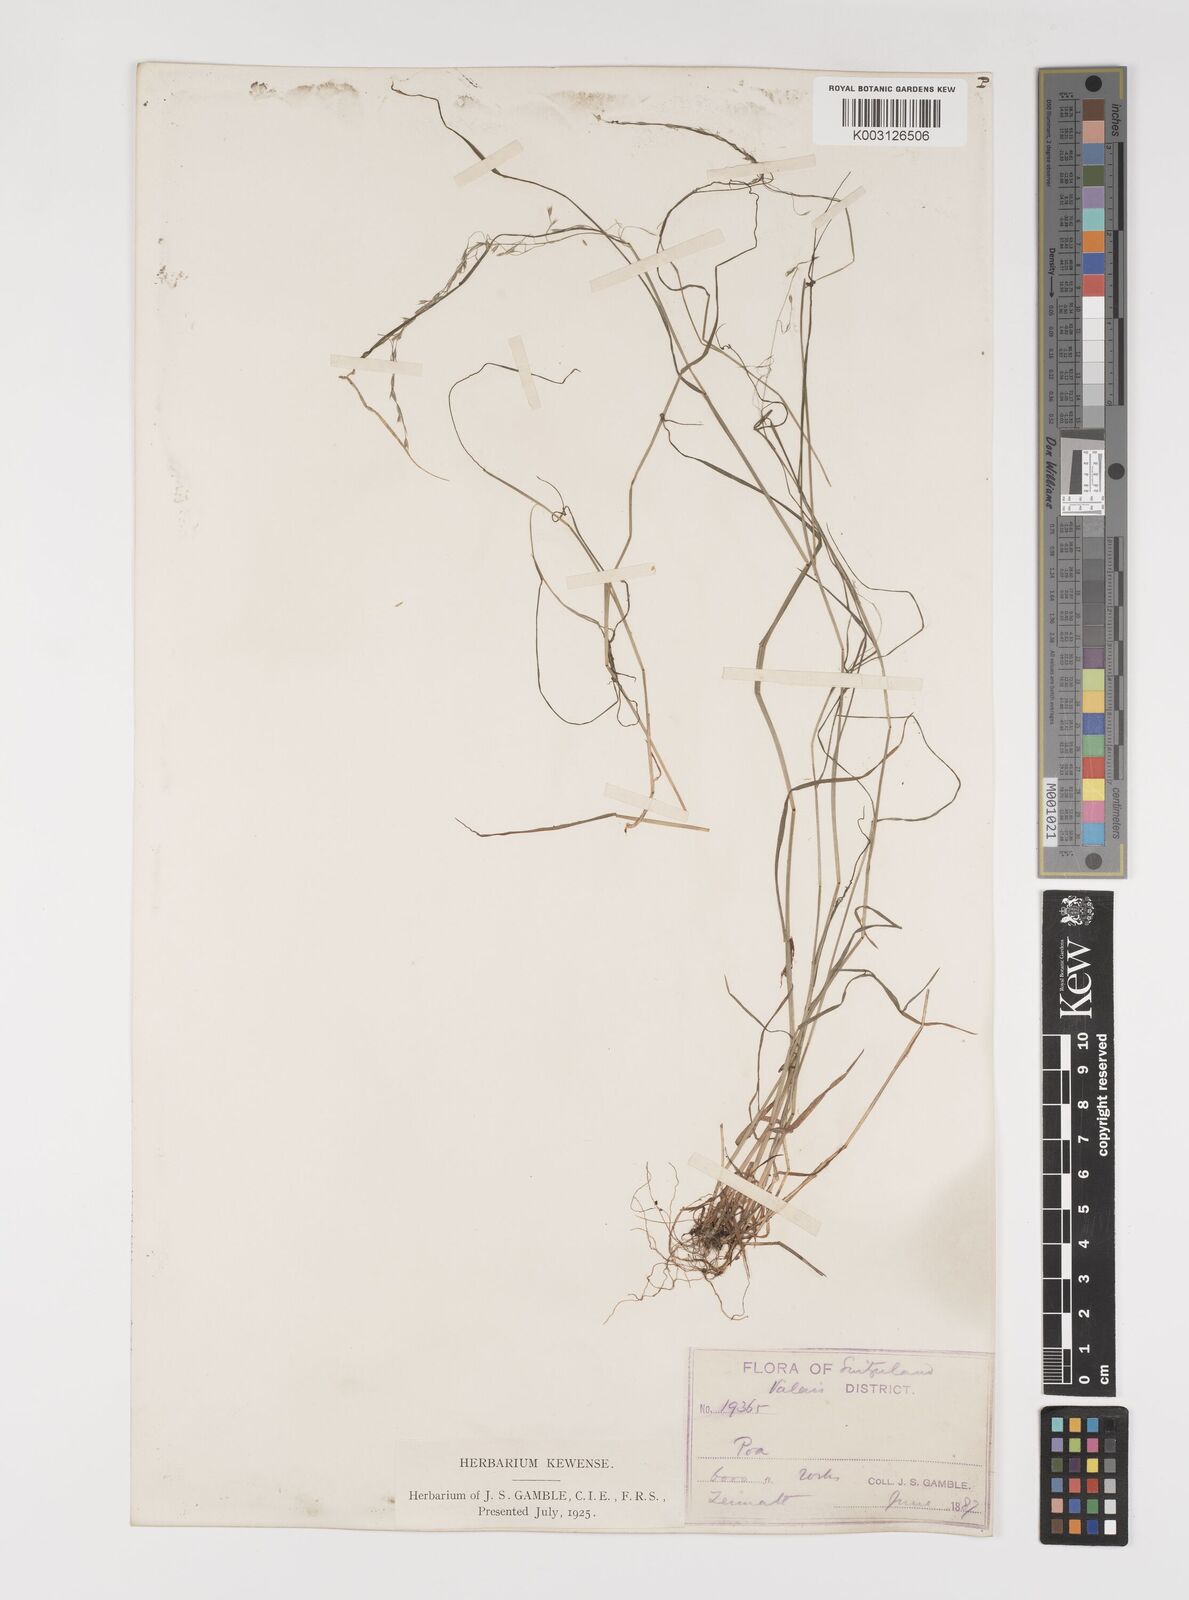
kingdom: Plantae
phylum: Tracheophyta
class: Liliopsida
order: Poales
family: Poaceae
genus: Poa
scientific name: Poa nemoralis
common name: Wood bluegrass
